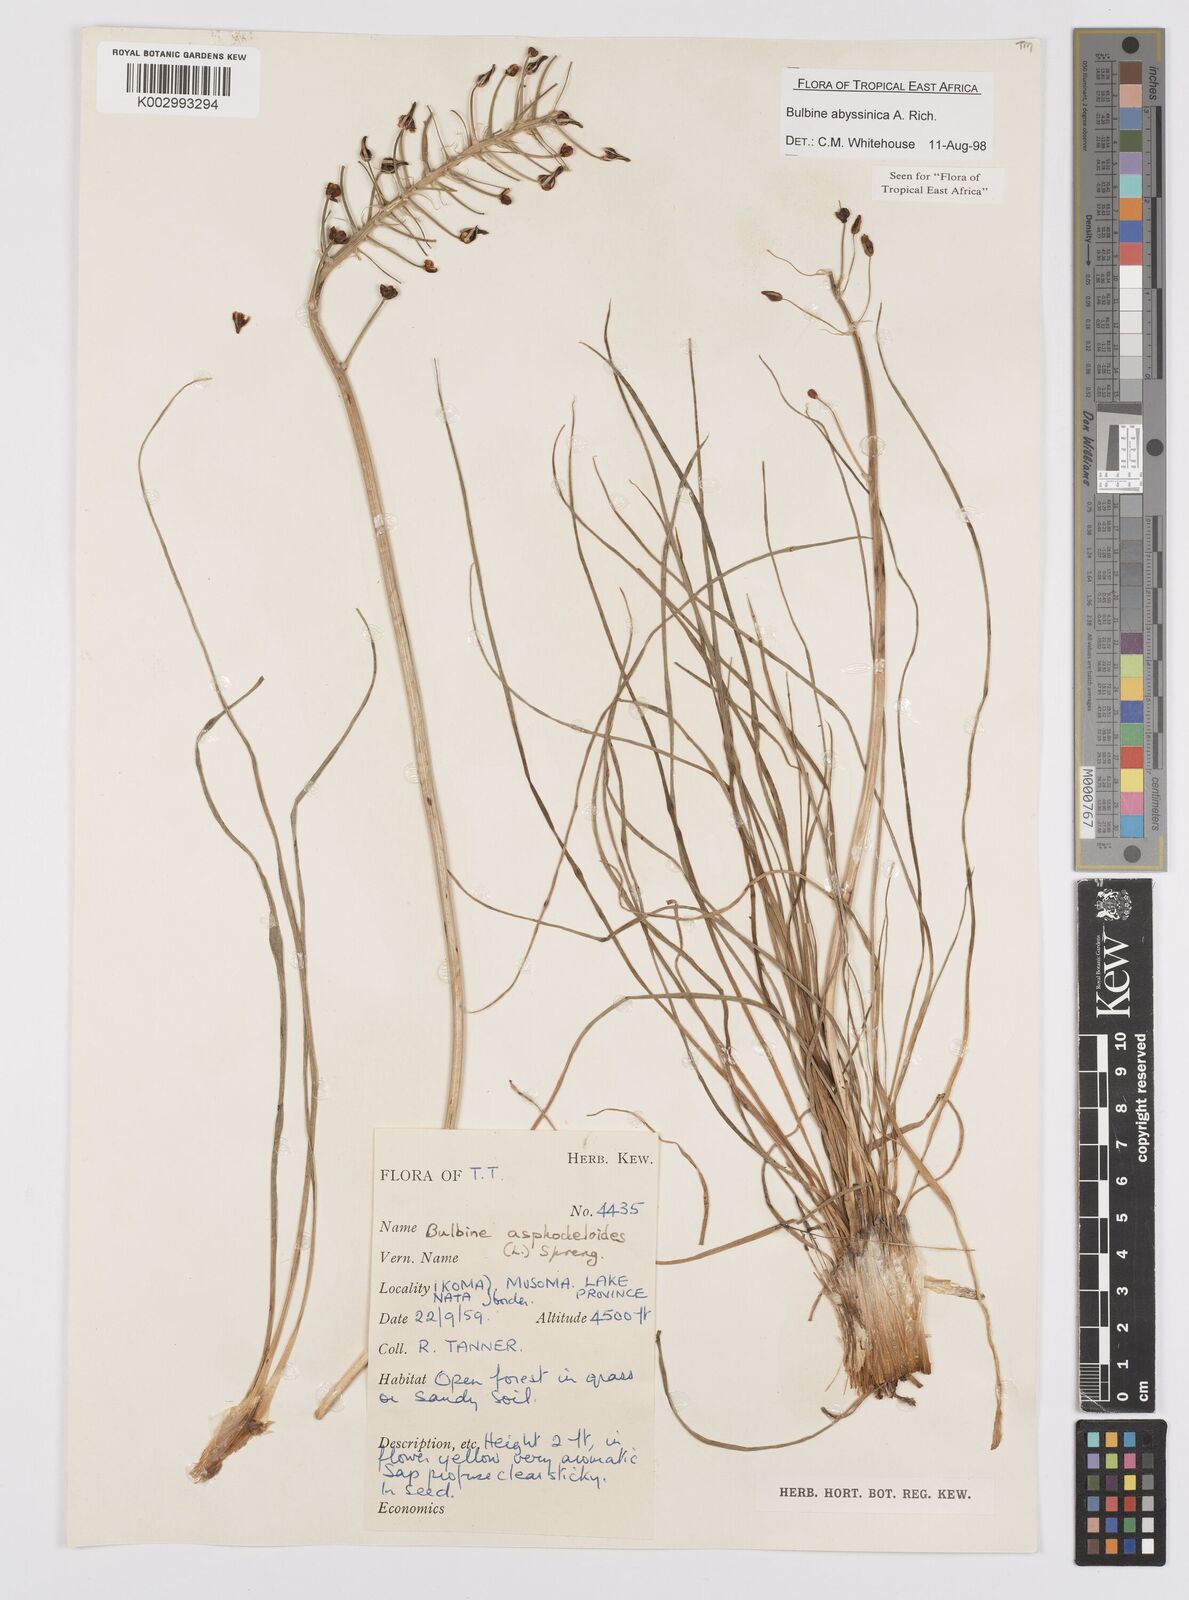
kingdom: Plantae
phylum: Tracheophyta
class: Liliopsida
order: Asparagales
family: Asphodelaceae
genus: Bulbine
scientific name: Bulbine abyssinica
